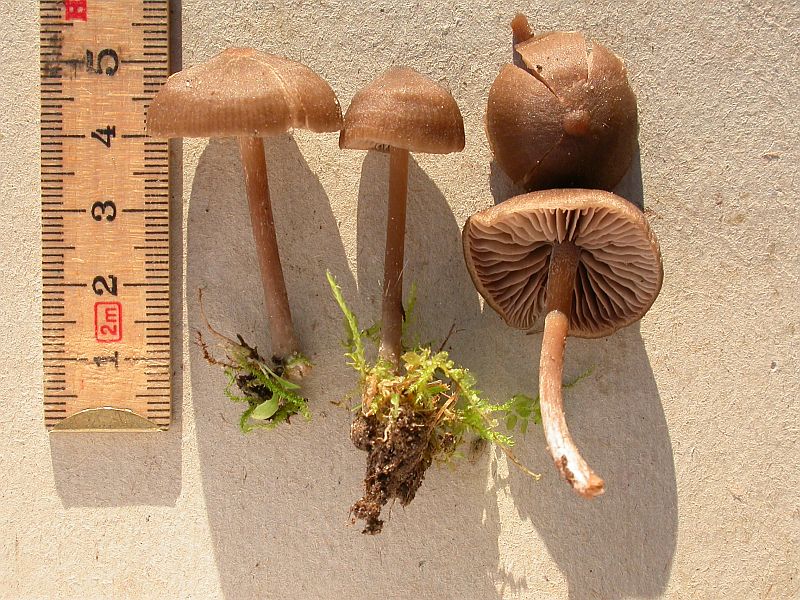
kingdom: Fungi
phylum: Basidiomycota
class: Agaricomycetes
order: Agaricales
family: Entolomataceae
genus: Entoloma
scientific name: Entoloma clandestinum
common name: tykbladet rødblad
